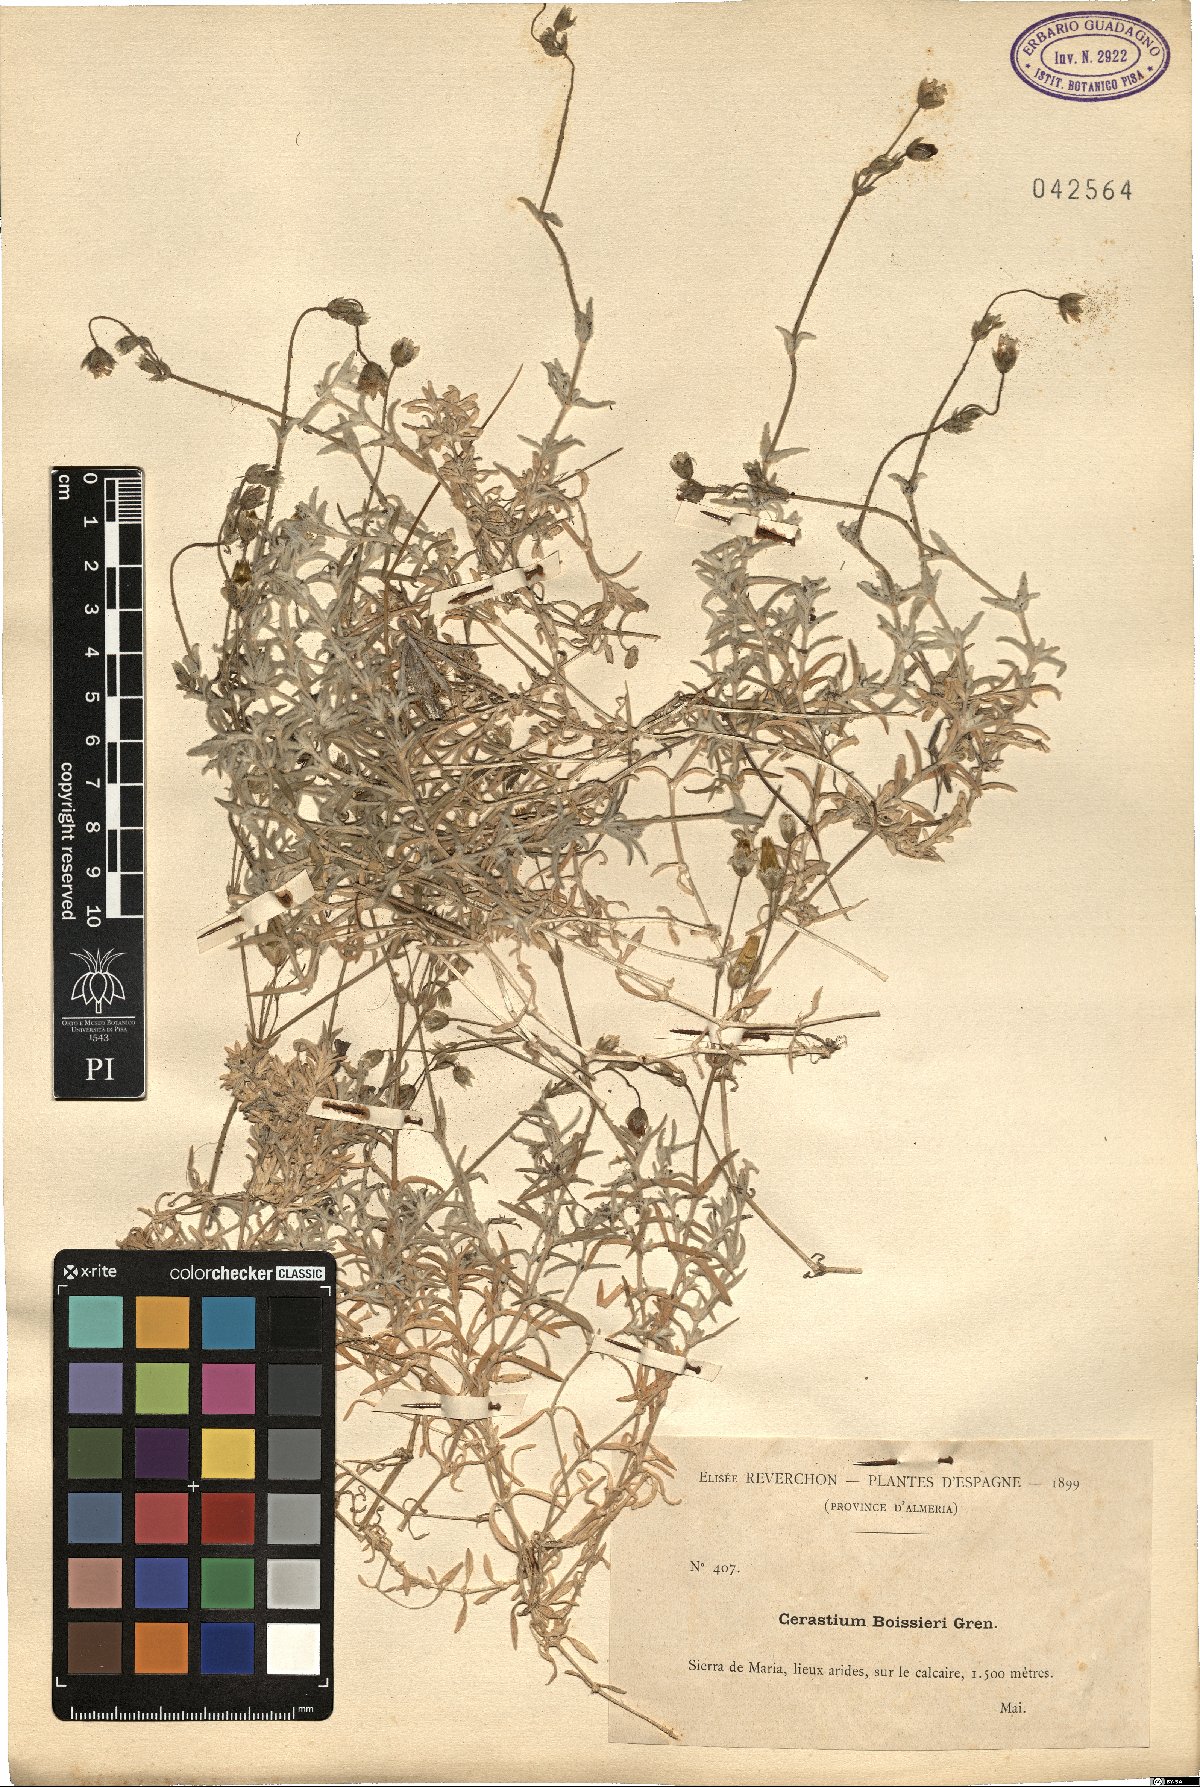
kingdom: Plantae
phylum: Tracheophyta
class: Magnoliopsida
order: Caryophyllales
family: Caryophyllaceae
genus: Cerastium
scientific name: Cerastium gibraltaricum
